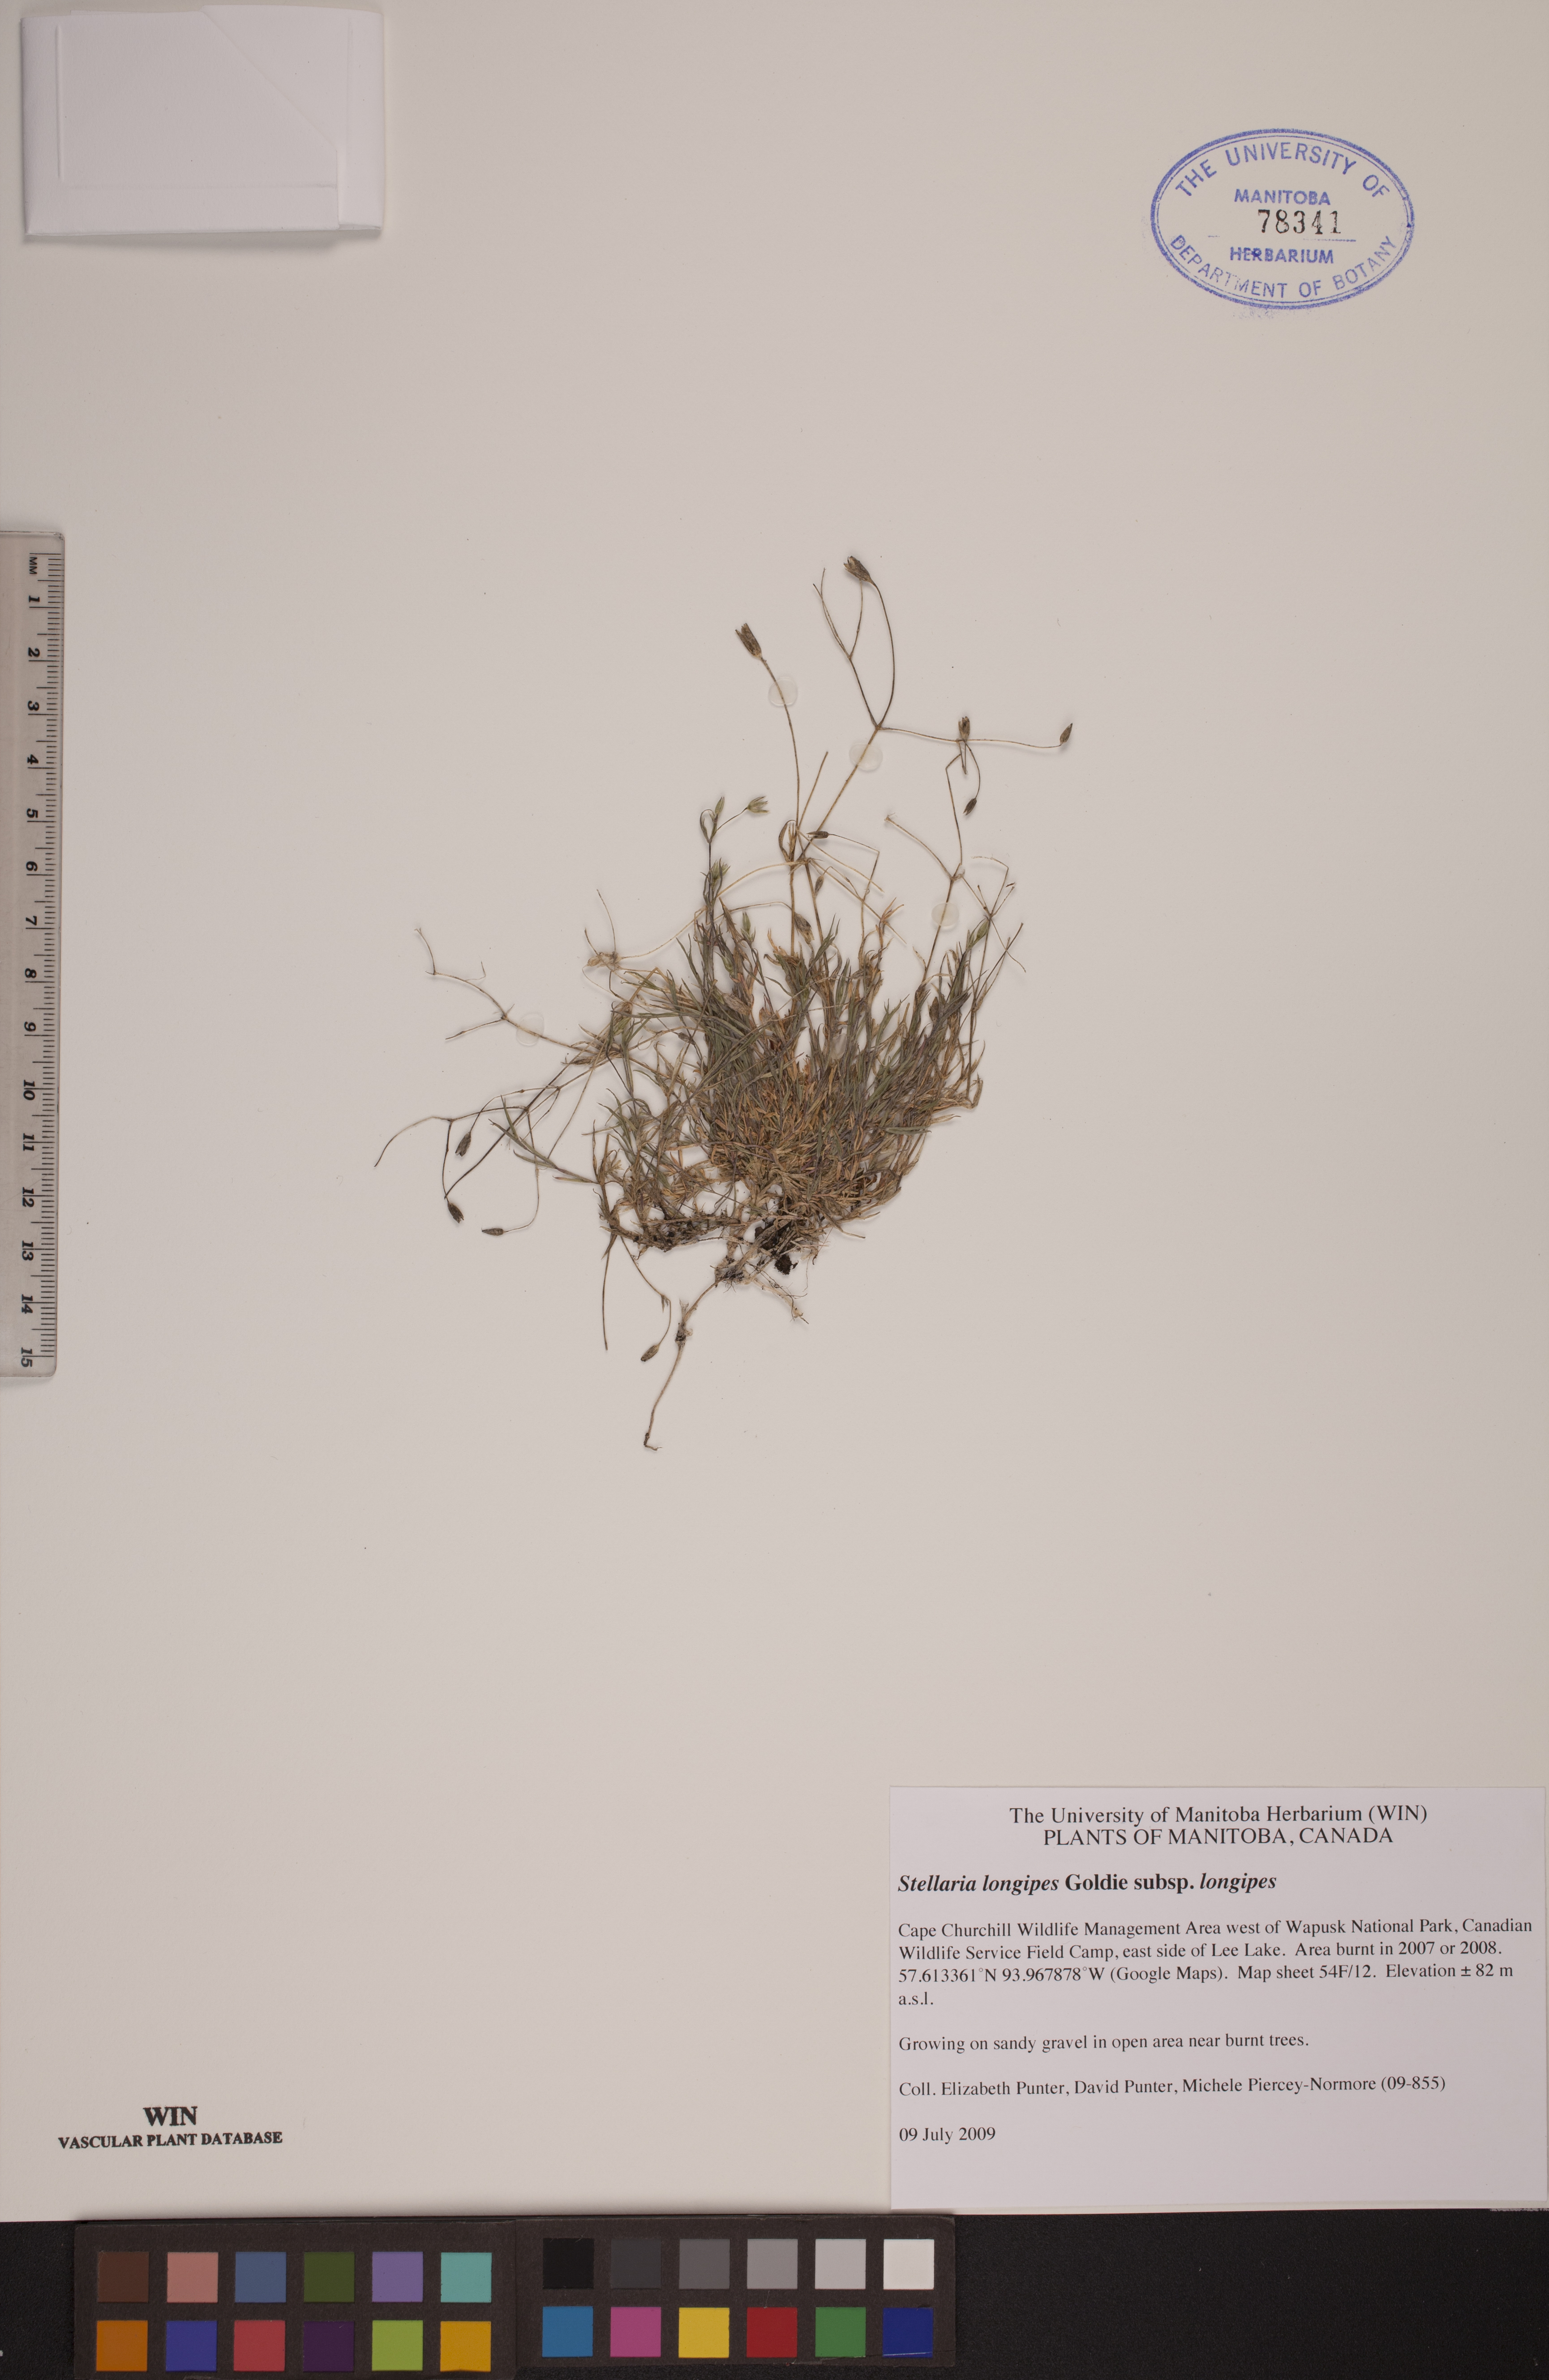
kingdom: Plantae
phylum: Tracheophyta
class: Magnoliopsida
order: Caryophyllales
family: Caryophyllaceae
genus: Stellaria
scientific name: Stellaria longipes
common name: Goldie's starwort
